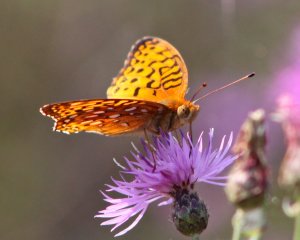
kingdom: Animalia
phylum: Arthropoda
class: Insecta
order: Lepidoptera
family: Nymphalidae
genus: Speyeria
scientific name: Speyeria aphrodite
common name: Aphrodite Fritillary
